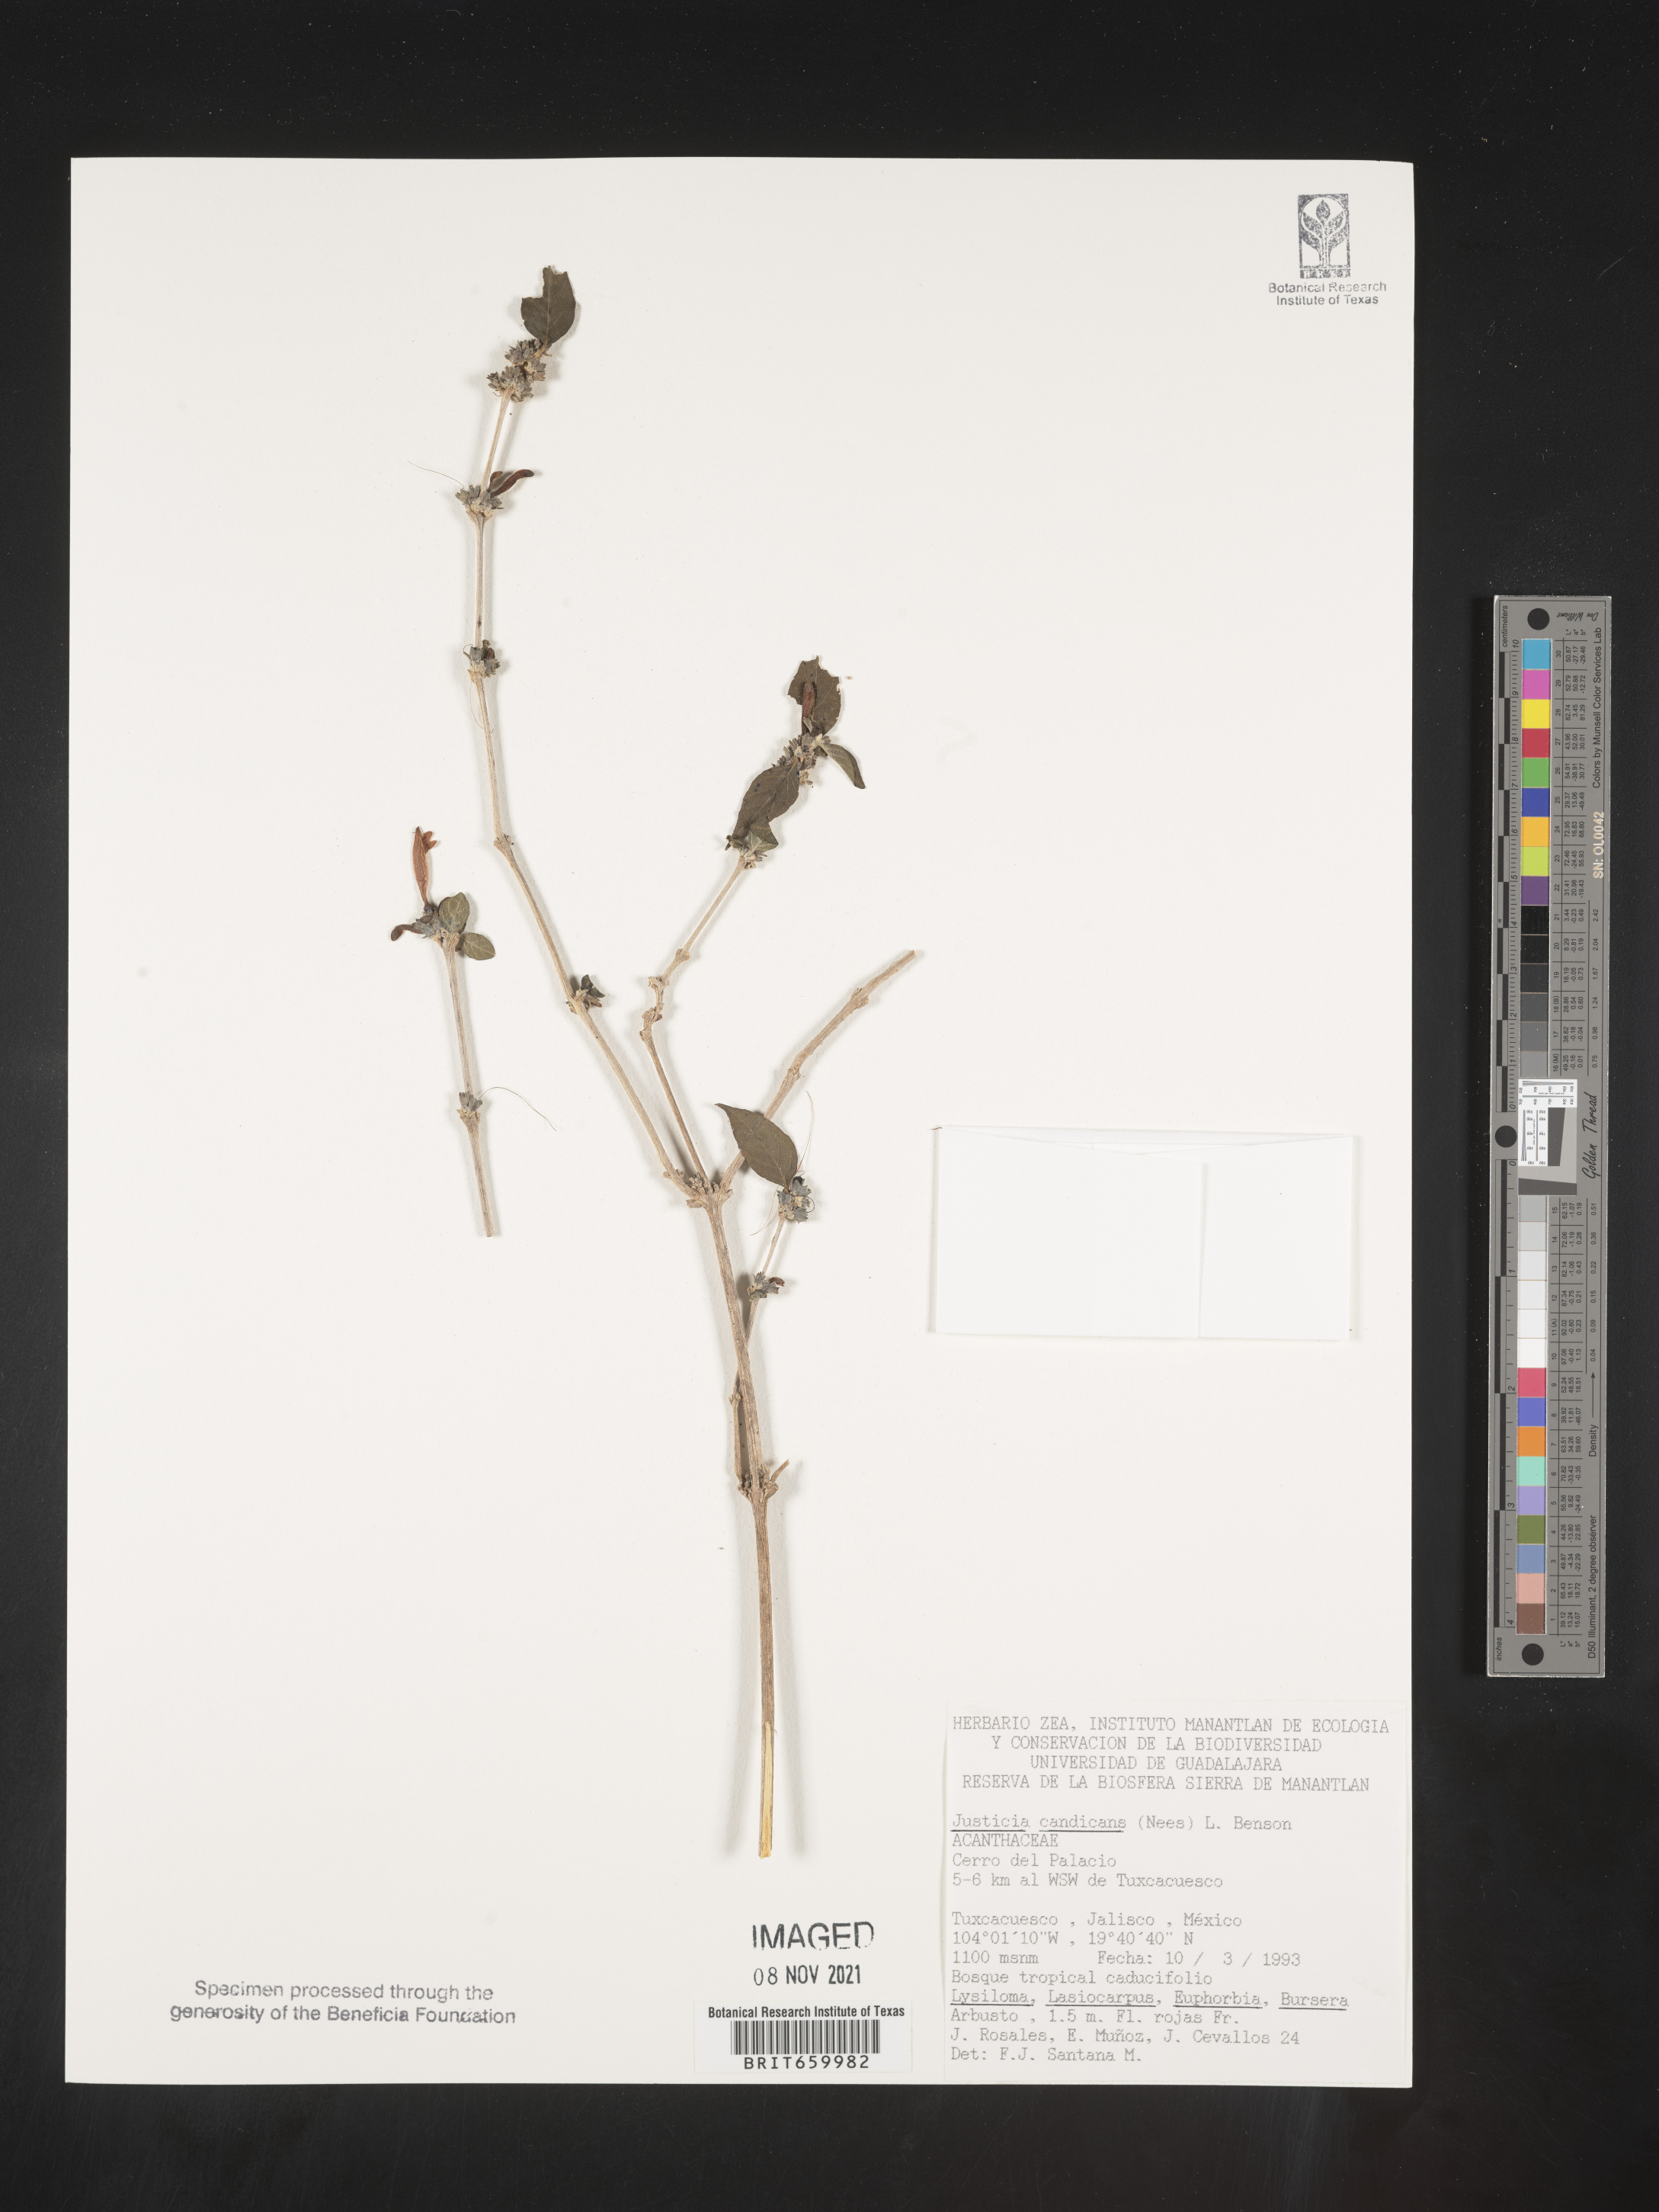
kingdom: Plantae
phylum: Tracheophyta
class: Magnoliopsida
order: Lamiales
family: Acanthaceae
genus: Justicia
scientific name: Justicia
